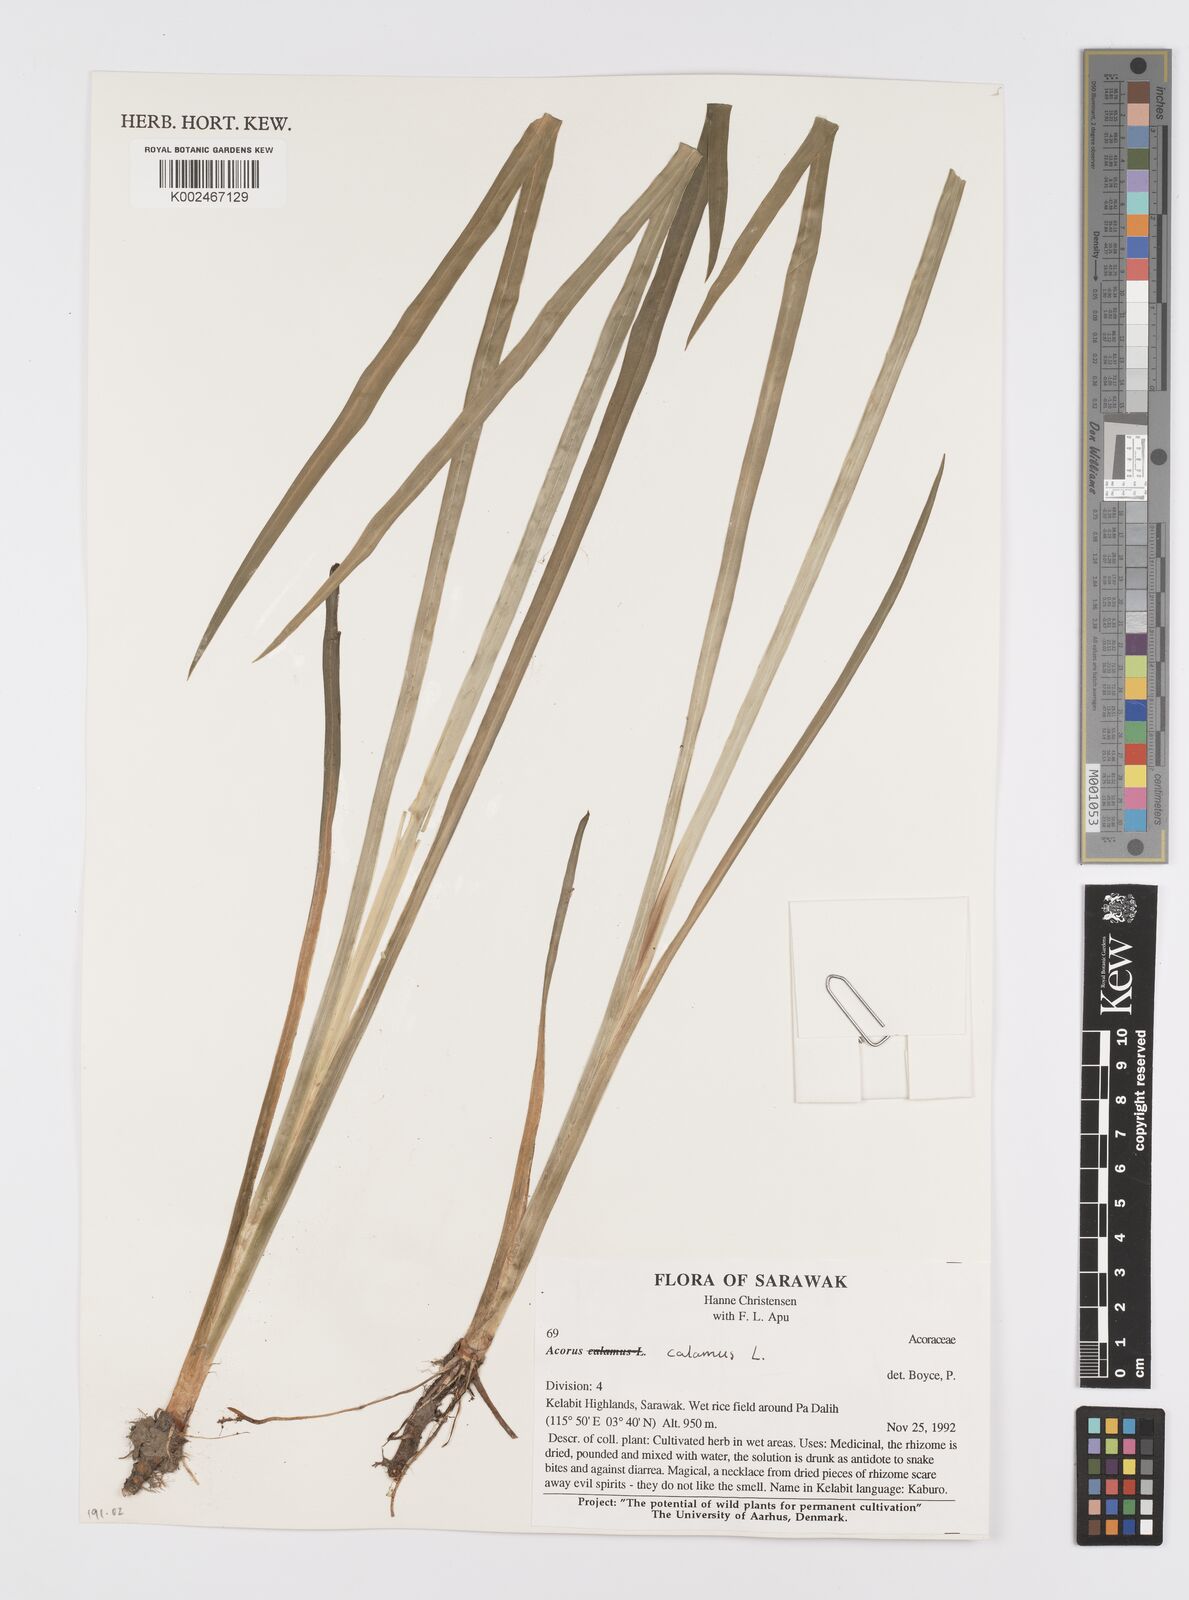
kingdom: Plantae
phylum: Tracheophyta
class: Liliopsida
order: Acorales
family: Acoraceae
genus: Acorus
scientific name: Acorus calamus
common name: Sweet-flag
